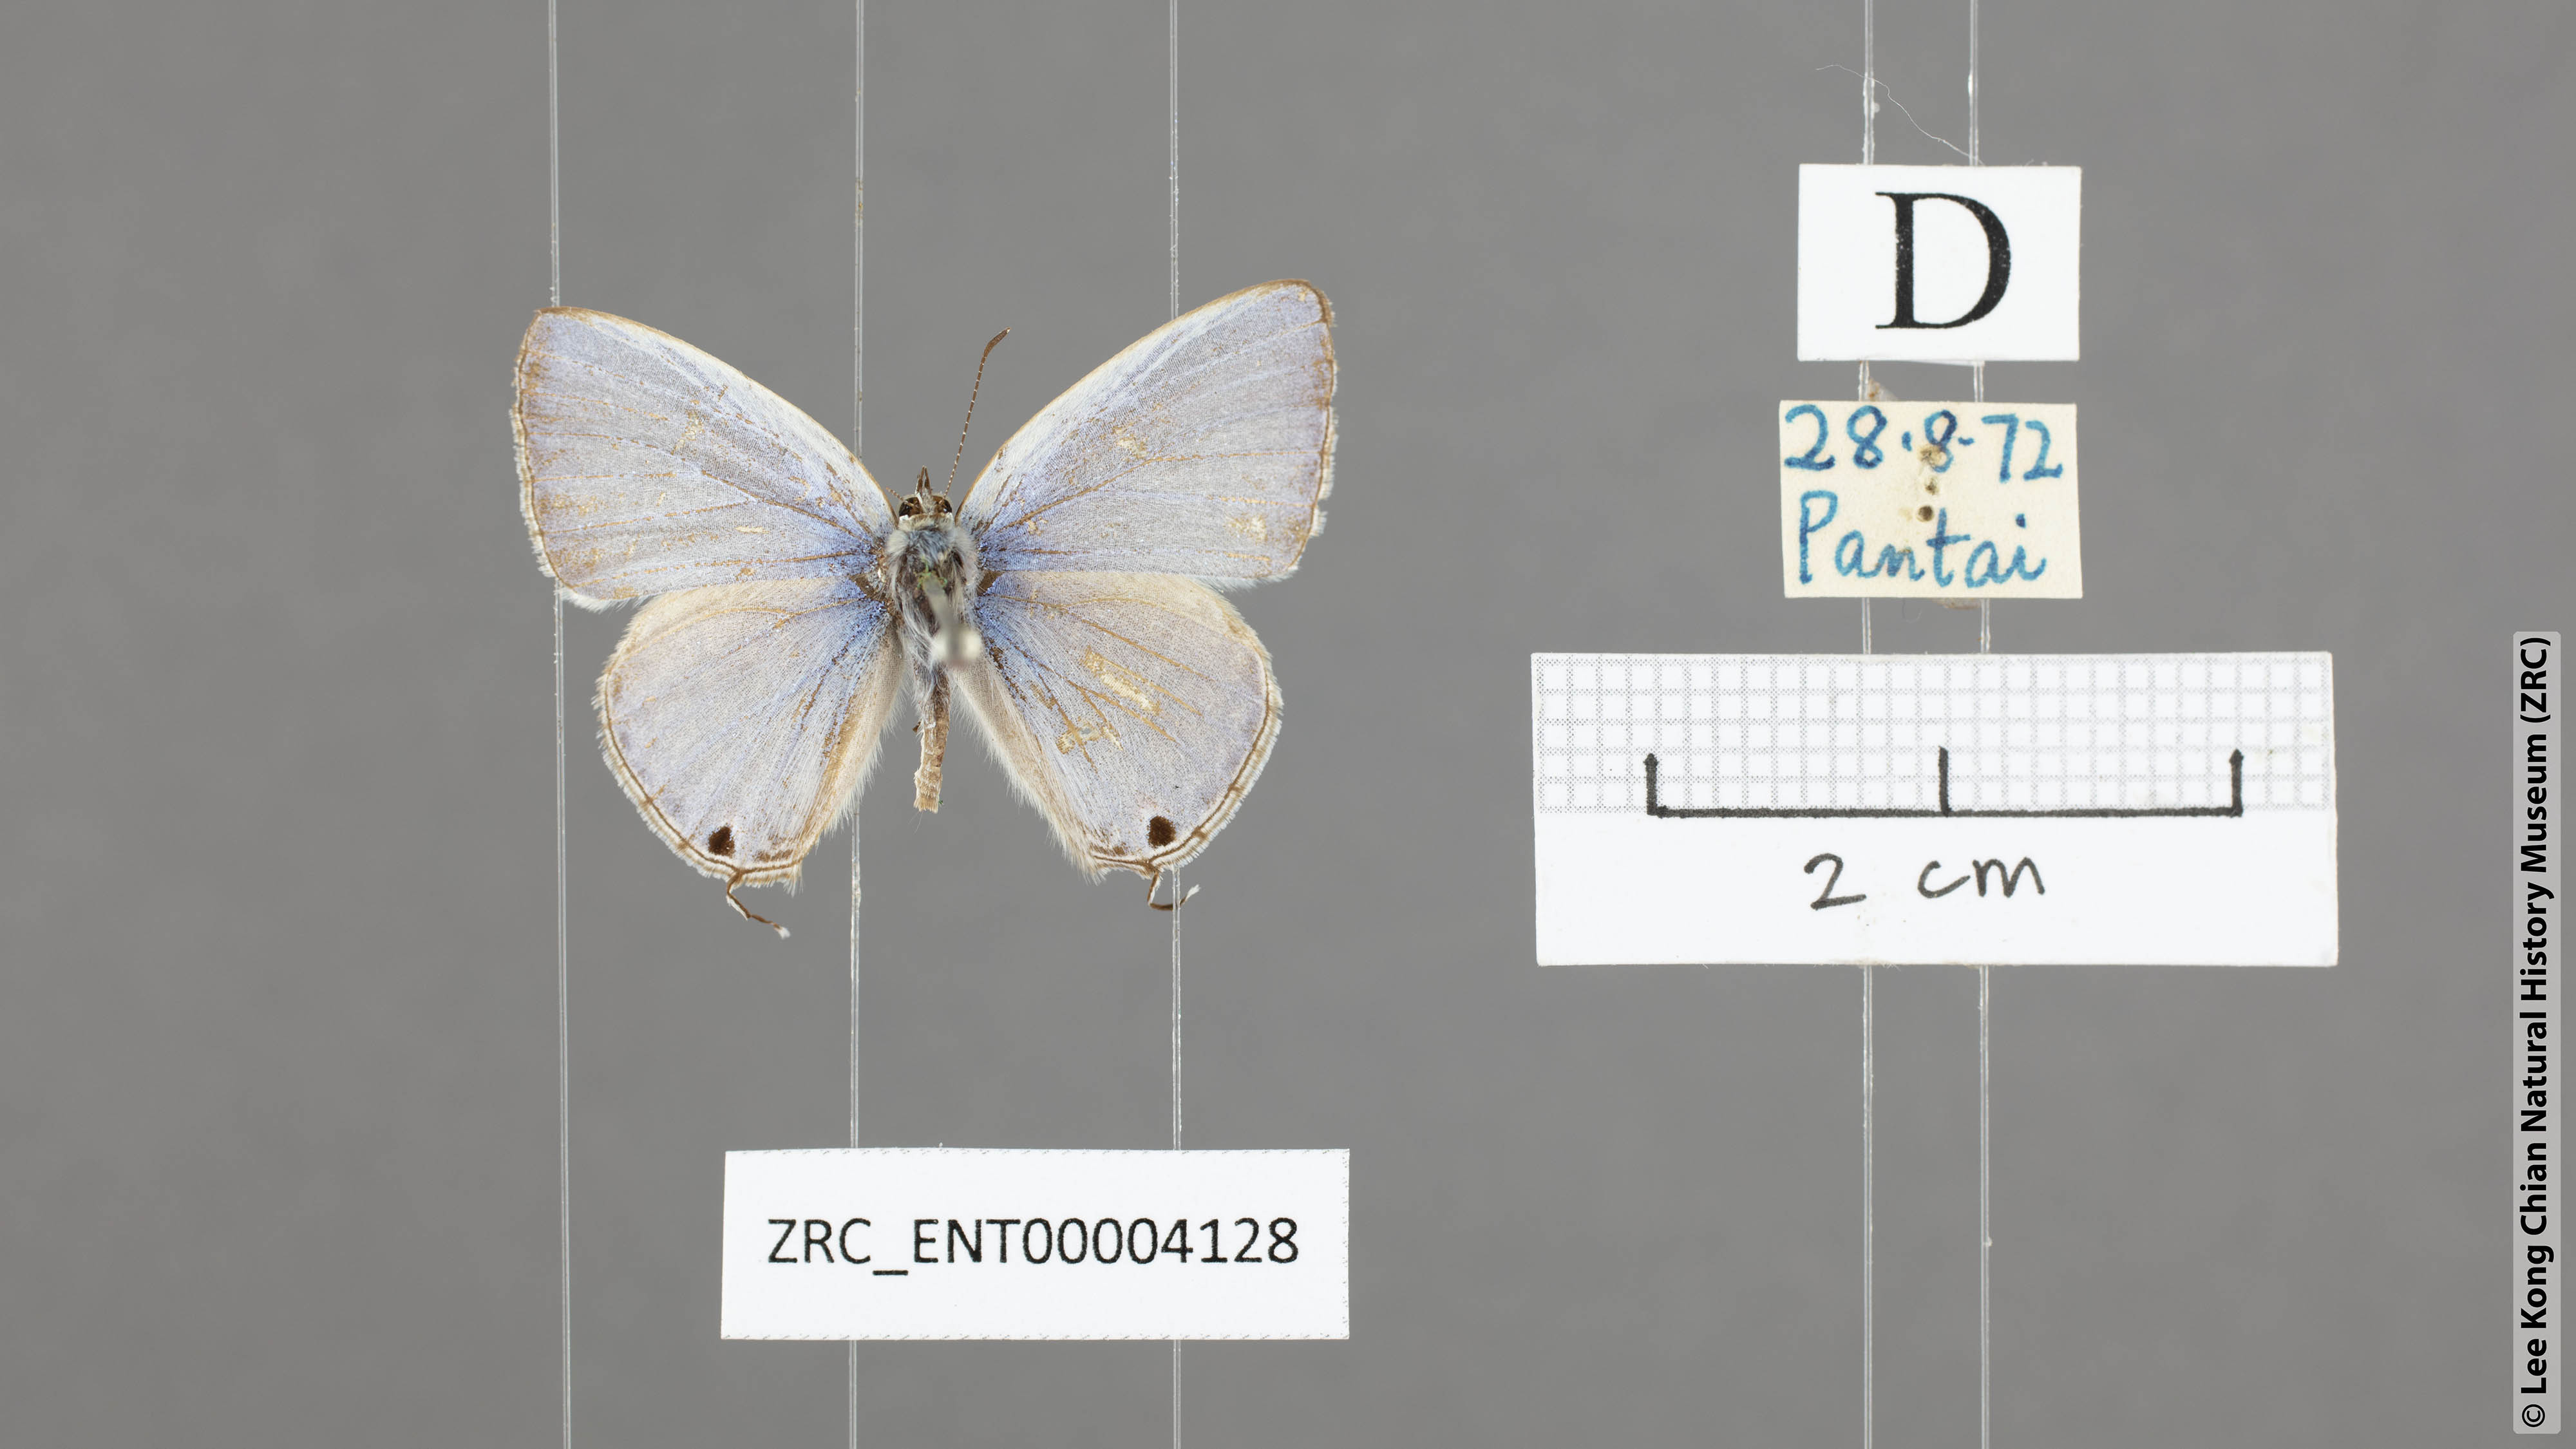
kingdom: Animalia
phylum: Arthropoda
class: Insecta
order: Lepidoptera
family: Lycaenidae
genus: Catochrysops
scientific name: Catochrysops panormus
